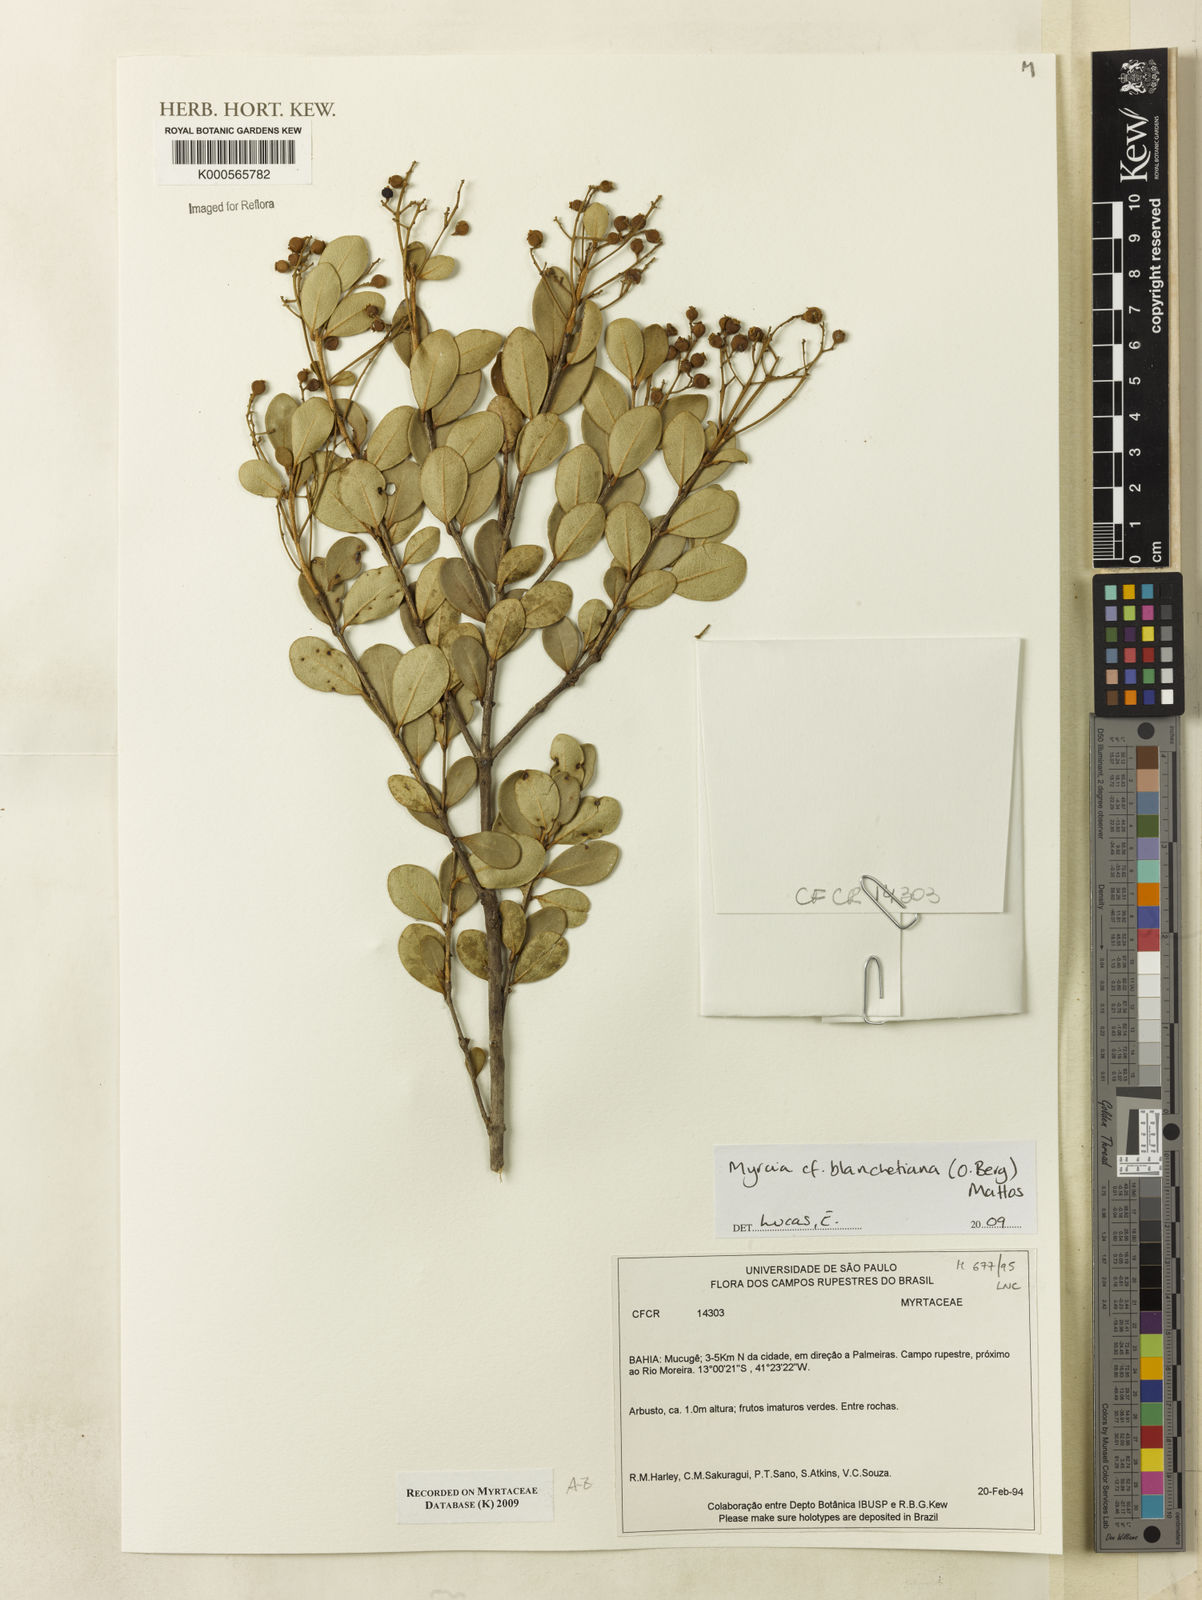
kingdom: Plantae
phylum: Tracheophyta
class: Magnoliopsida
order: Myrtales
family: Myrtaceae
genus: Myrcia
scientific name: Myrcia blanchetiana
